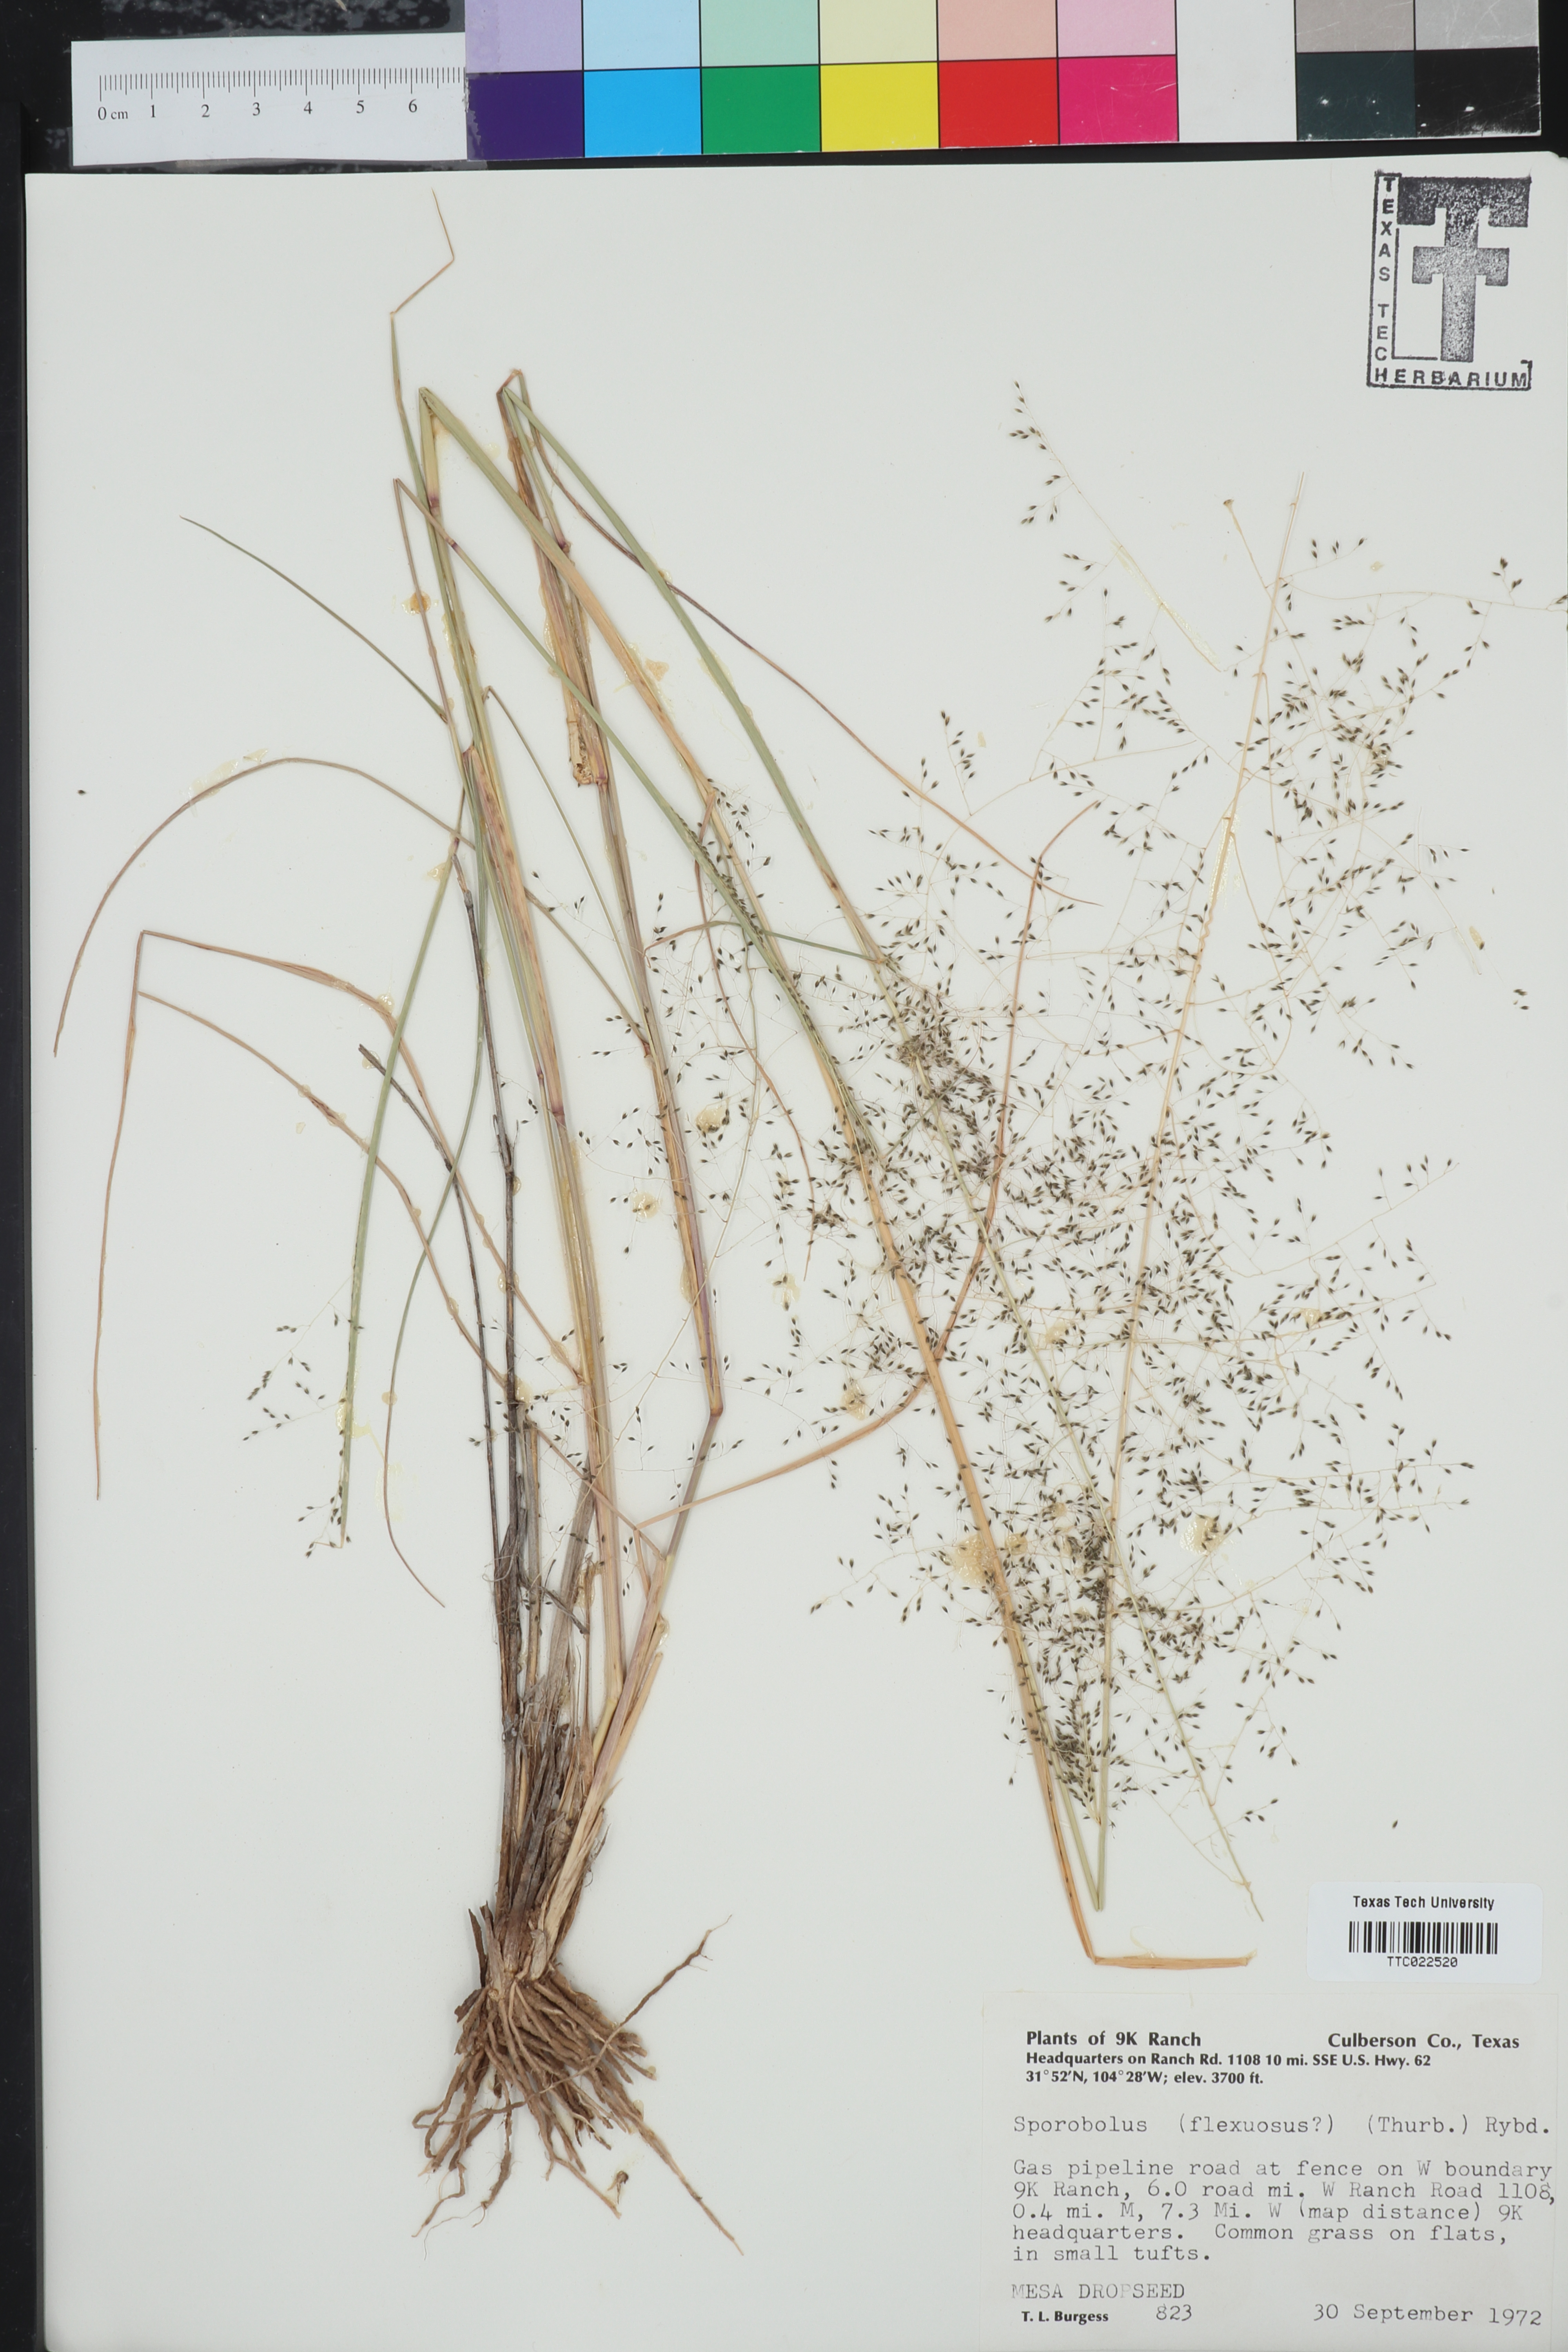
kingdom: Plantae
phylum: Tracheophyta
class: Liliopsida
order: Poales
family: Poaceae
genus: Sporobolus
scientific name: Sporobolus flexuosus
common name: Mesa dropseed
